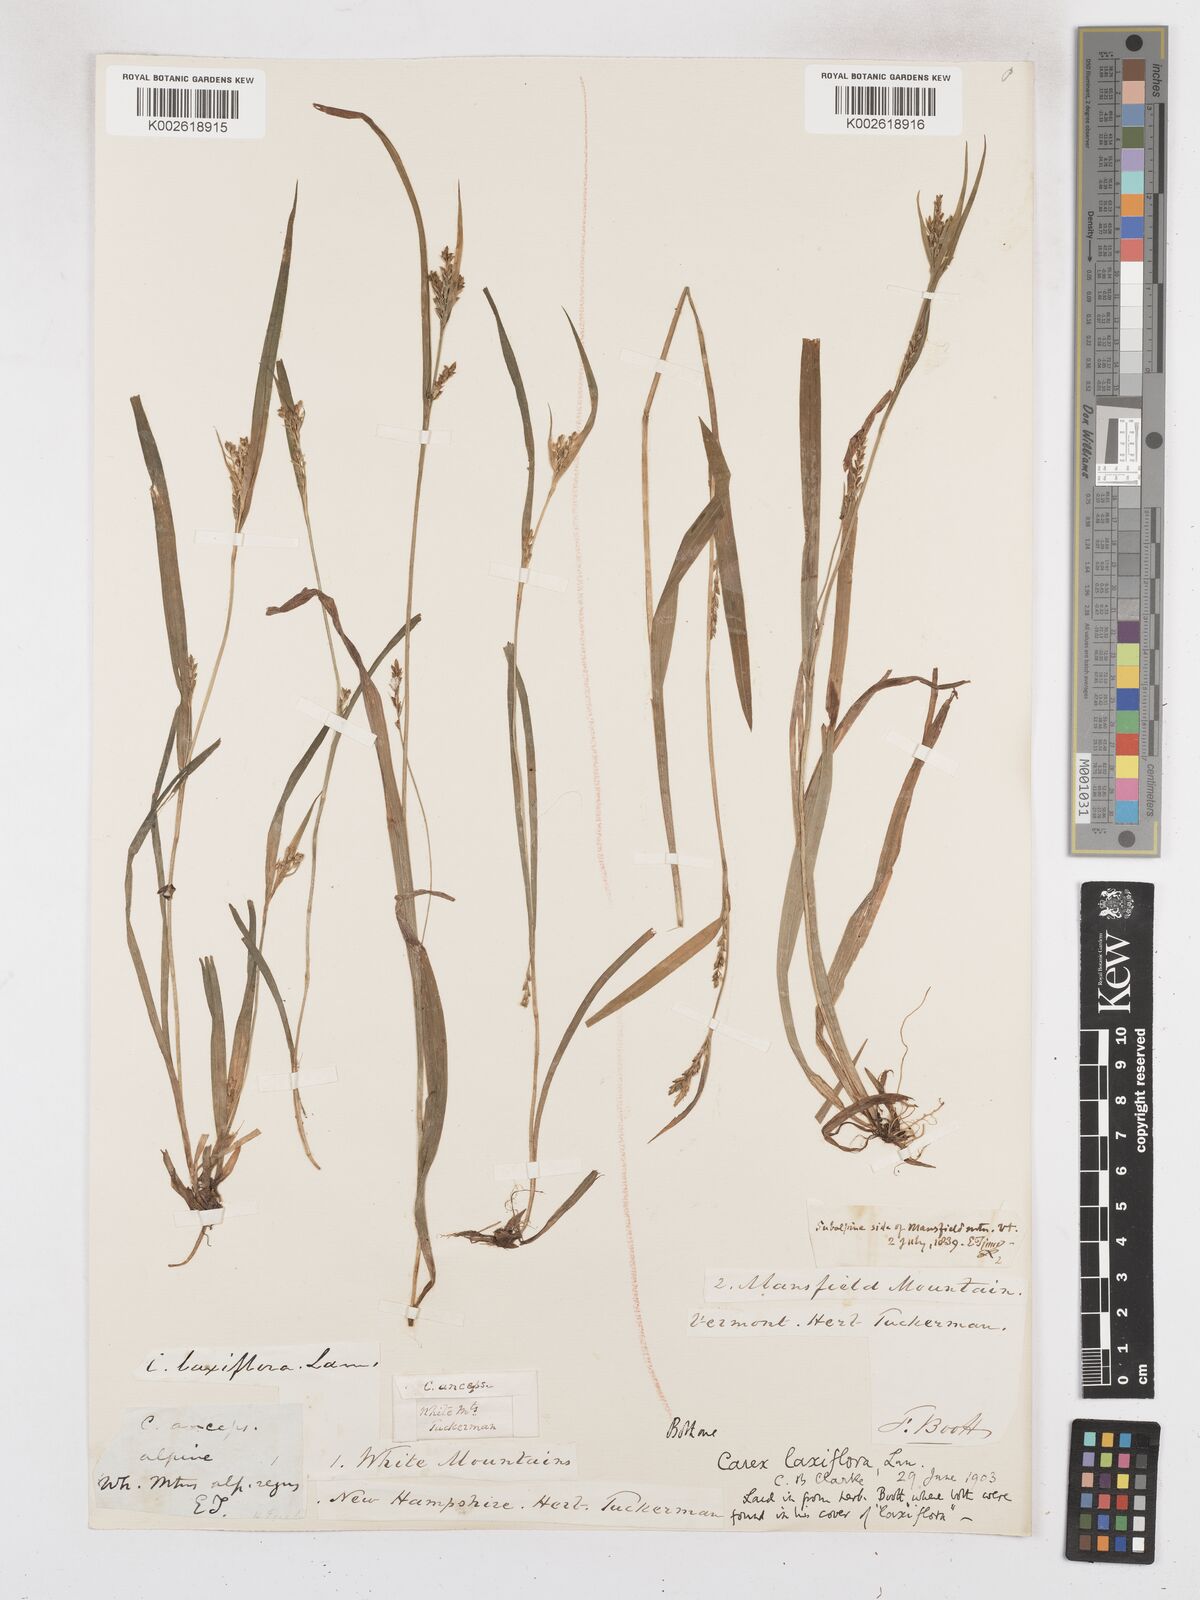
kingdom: Plantae
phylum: Tracheophyta
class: Liliopsida
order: Poales
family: Cyperaceae
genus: Carex
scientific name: Carex laxiflora
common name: Beech wood sedge
